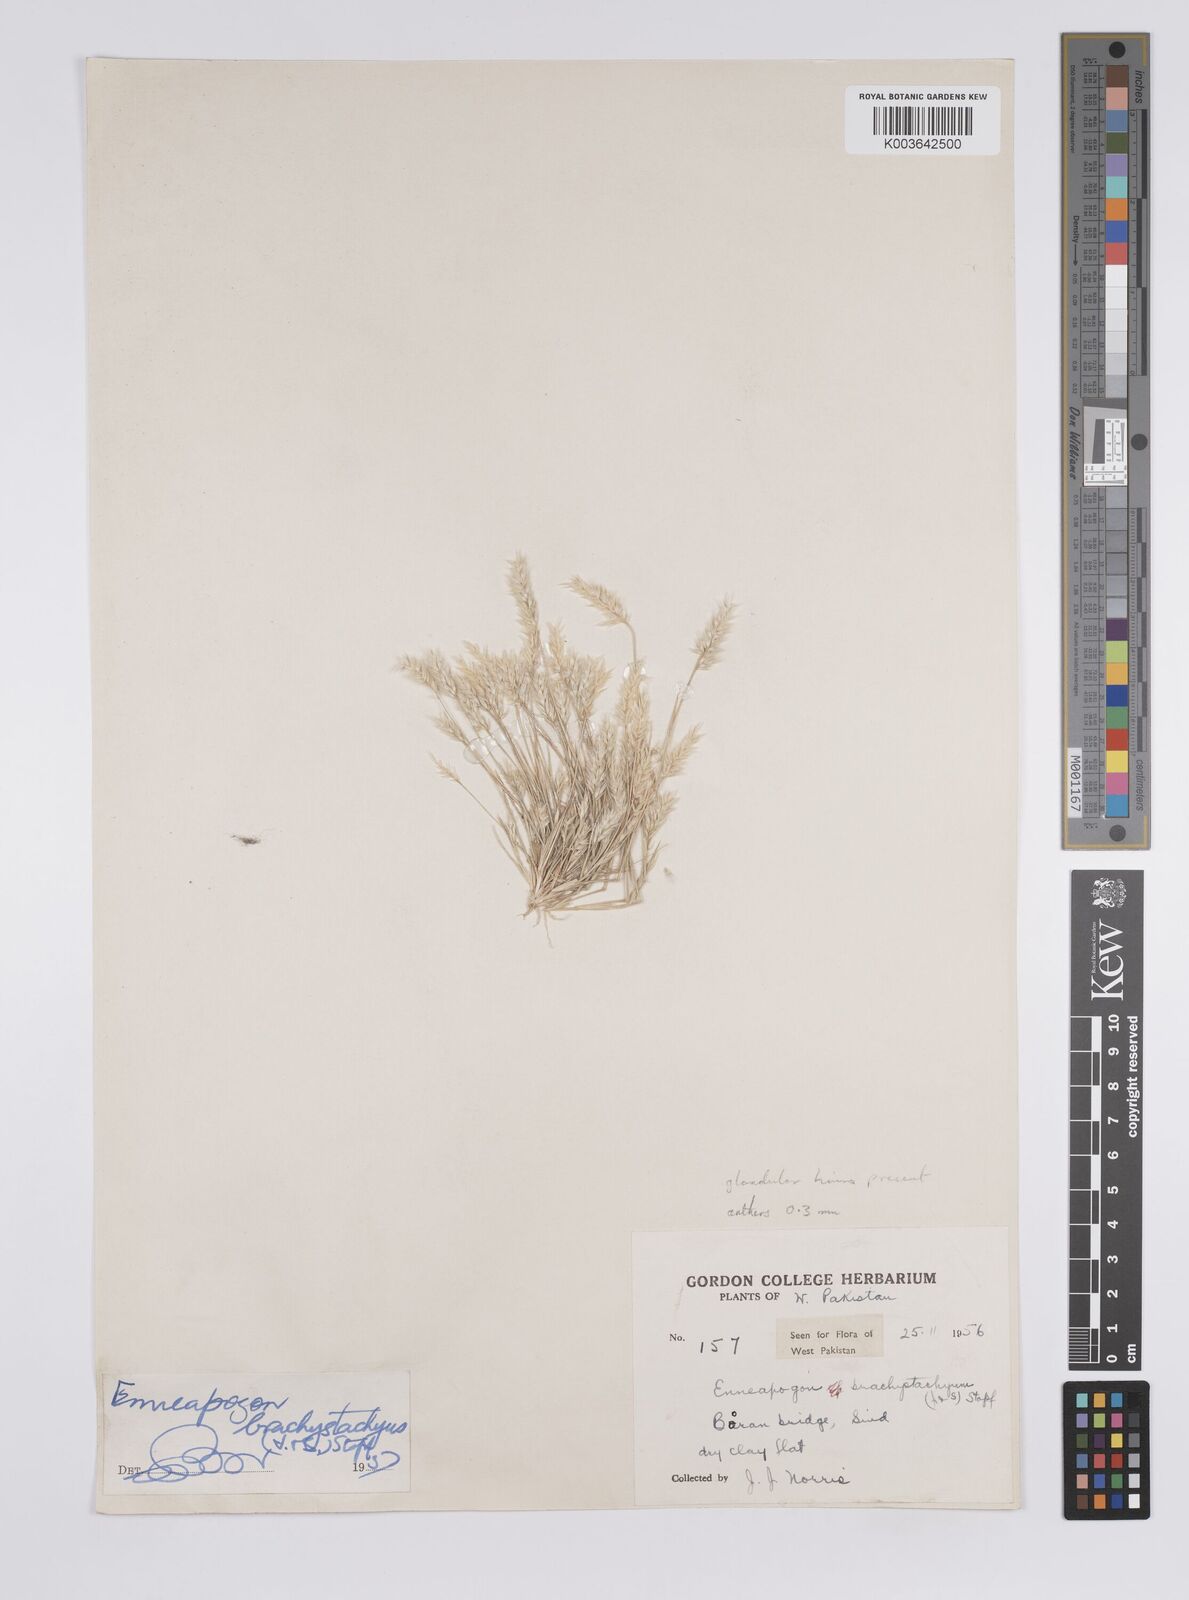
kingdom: Plantae
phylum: Tracheophyta
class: Liliopsida
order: Poales
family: Poaceae
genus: Enneapogon
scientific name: Enneapogon desvauxii
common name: Feather pappus grass
